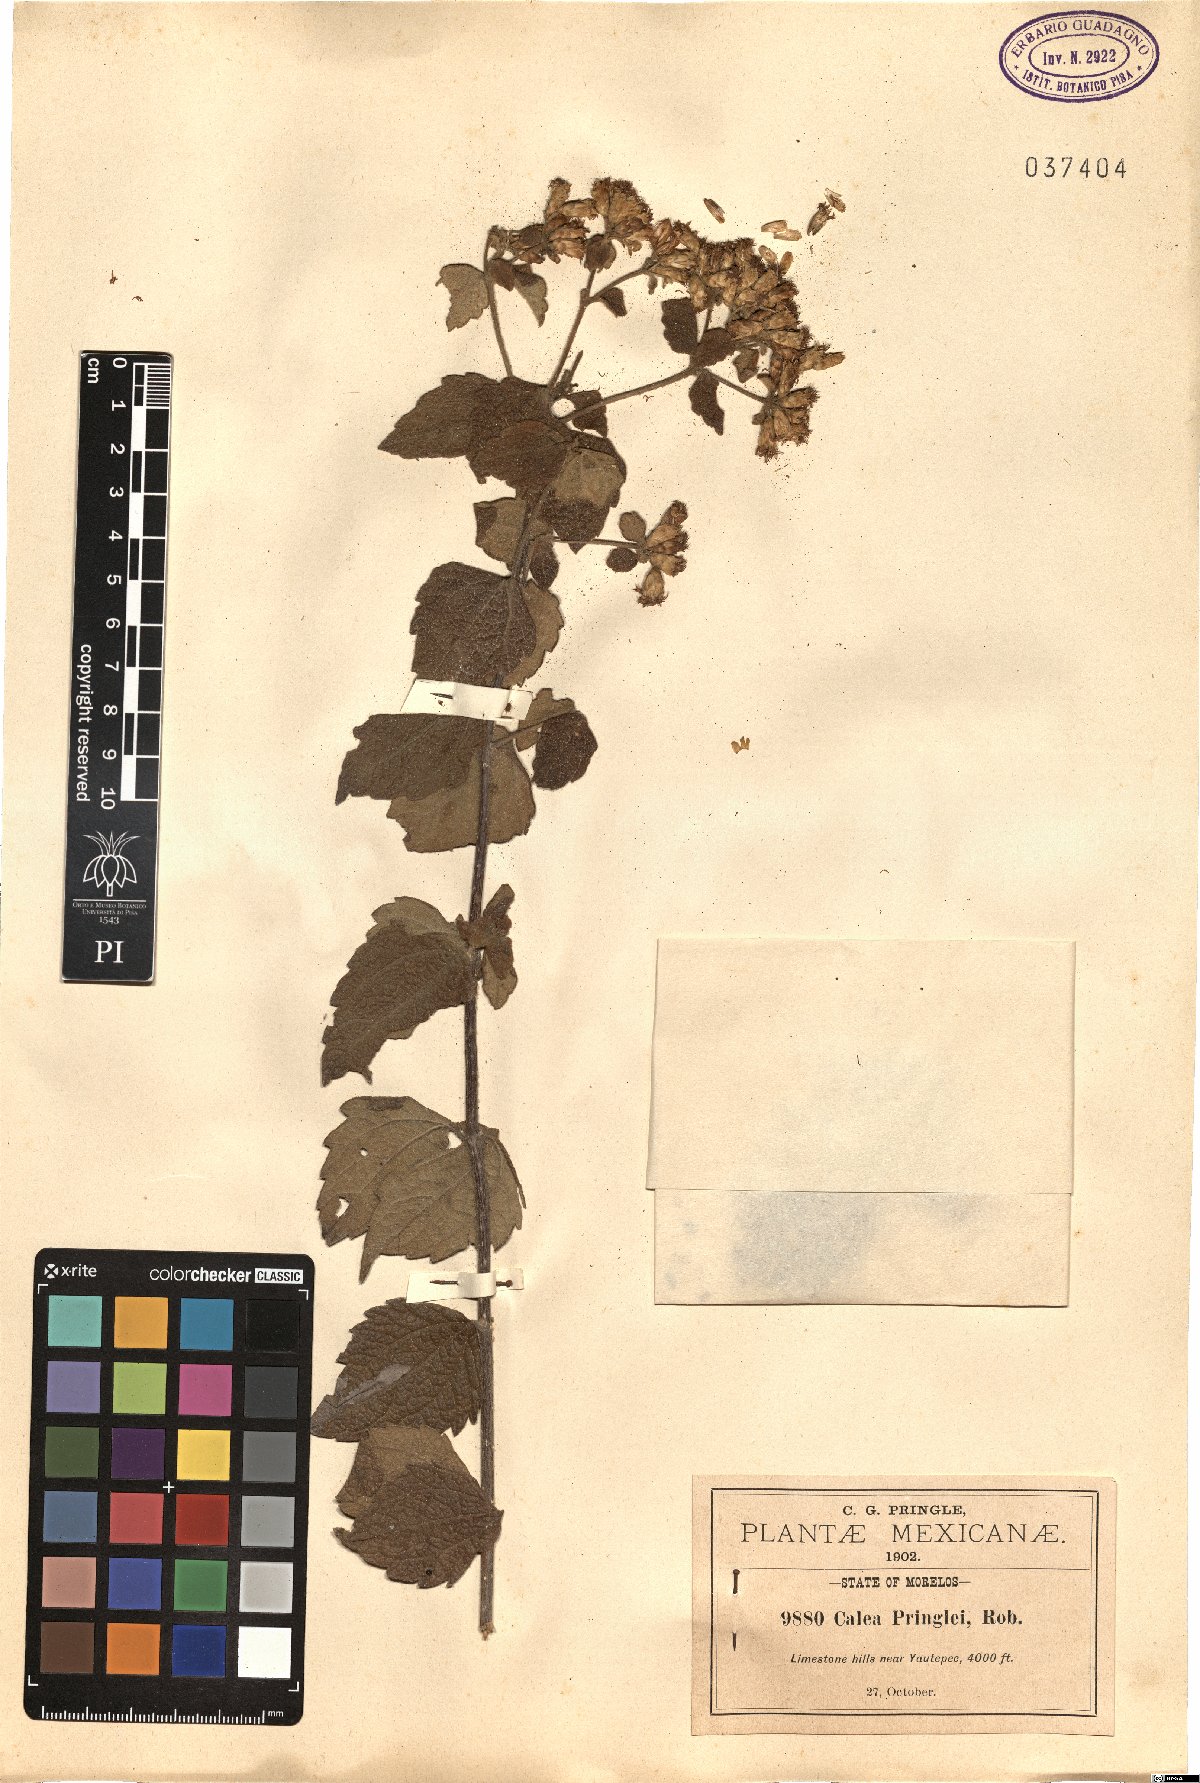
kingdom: Plantae
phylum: Tracheophyta
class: Magnoliopsida
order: Asterales
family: Asteraceae
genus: Calea
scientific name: Calea ternifolia
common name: Mexican calea
